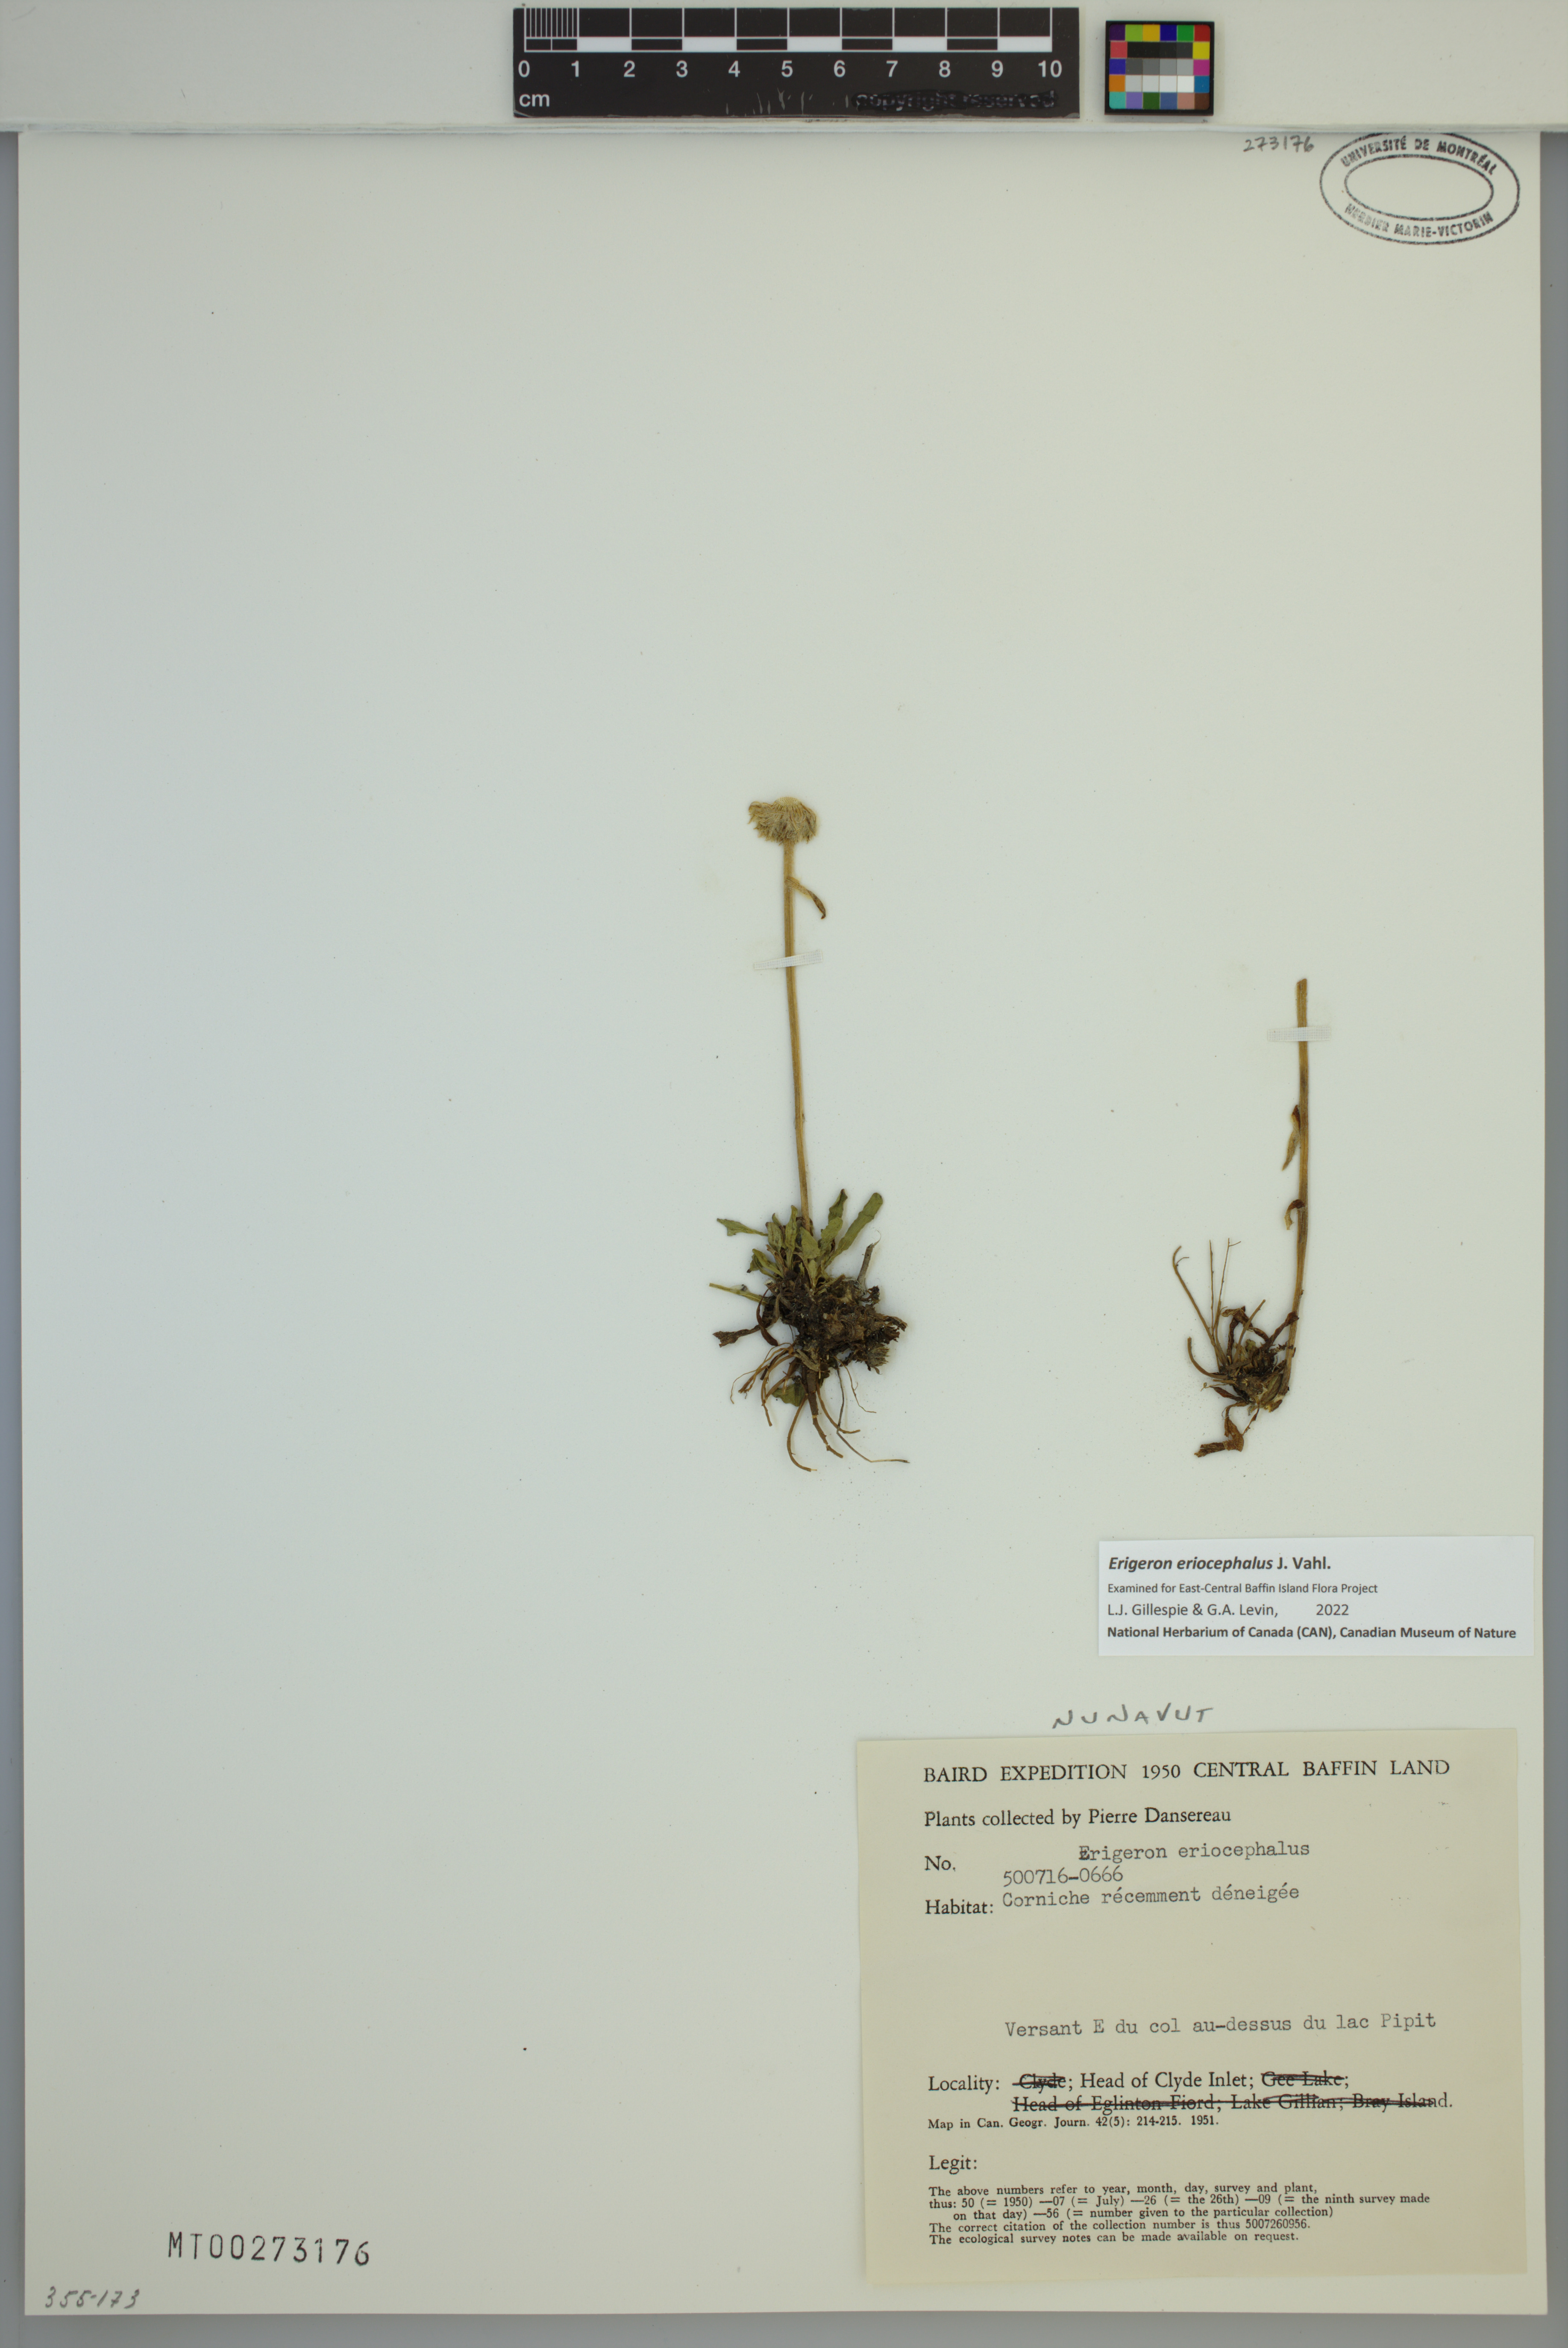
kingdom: Plantae
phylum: Tracheophyta
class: Magnoliopsida
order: Asterales
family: Asteraceae
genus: Erigeron
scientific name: Erigeron eriocephalus
